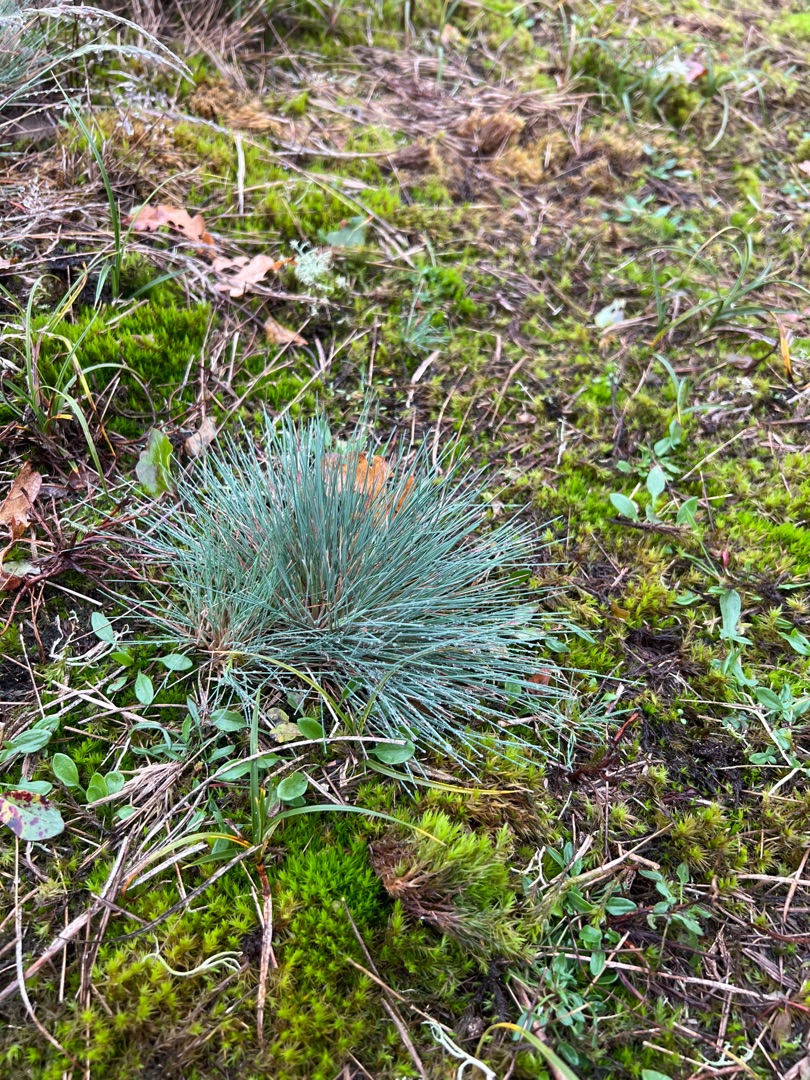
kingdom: Plantae
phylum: Tracheophyta
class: Liliopsida
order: Poales
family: Poaceae
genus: Corynephorus
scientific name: Corynephorus canescens
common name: Sandskæg
